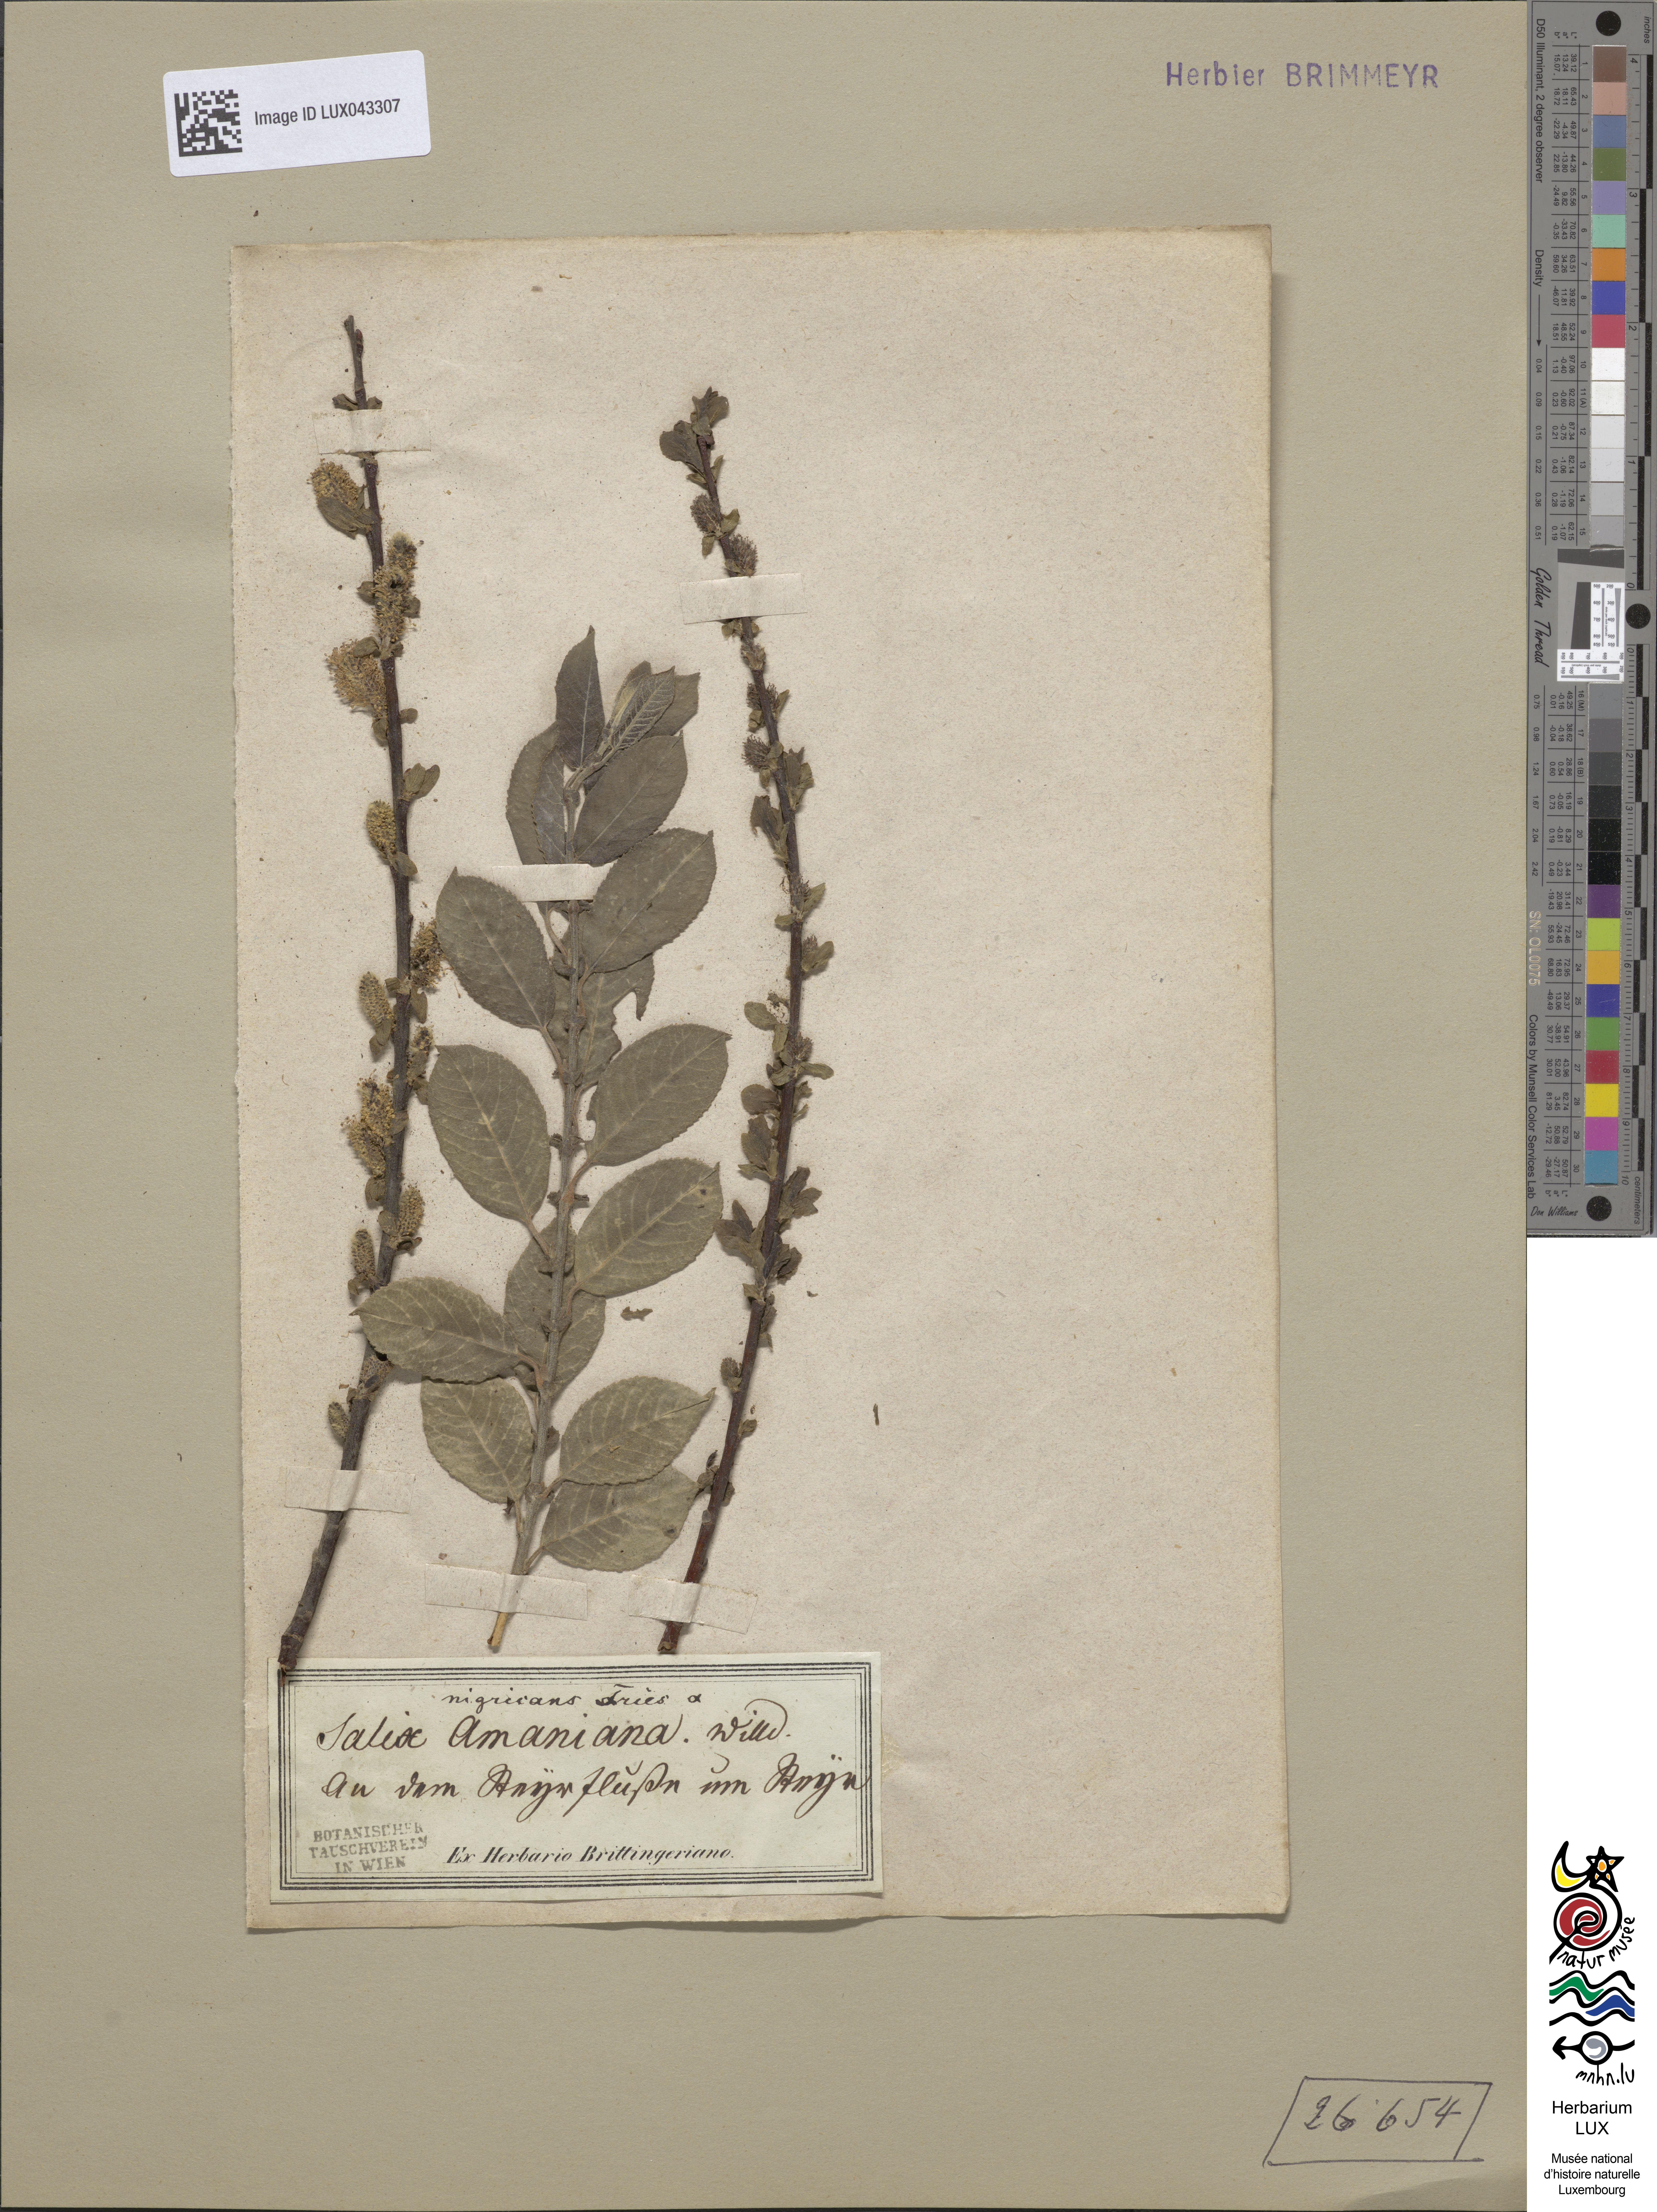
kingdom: Plantae
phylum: Tracheophyta
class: Magnoliopsida
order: Malpighiales
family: Salicaceae
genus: Salix
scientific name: Salix myrsinifolia
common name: Dark-leaved willow
